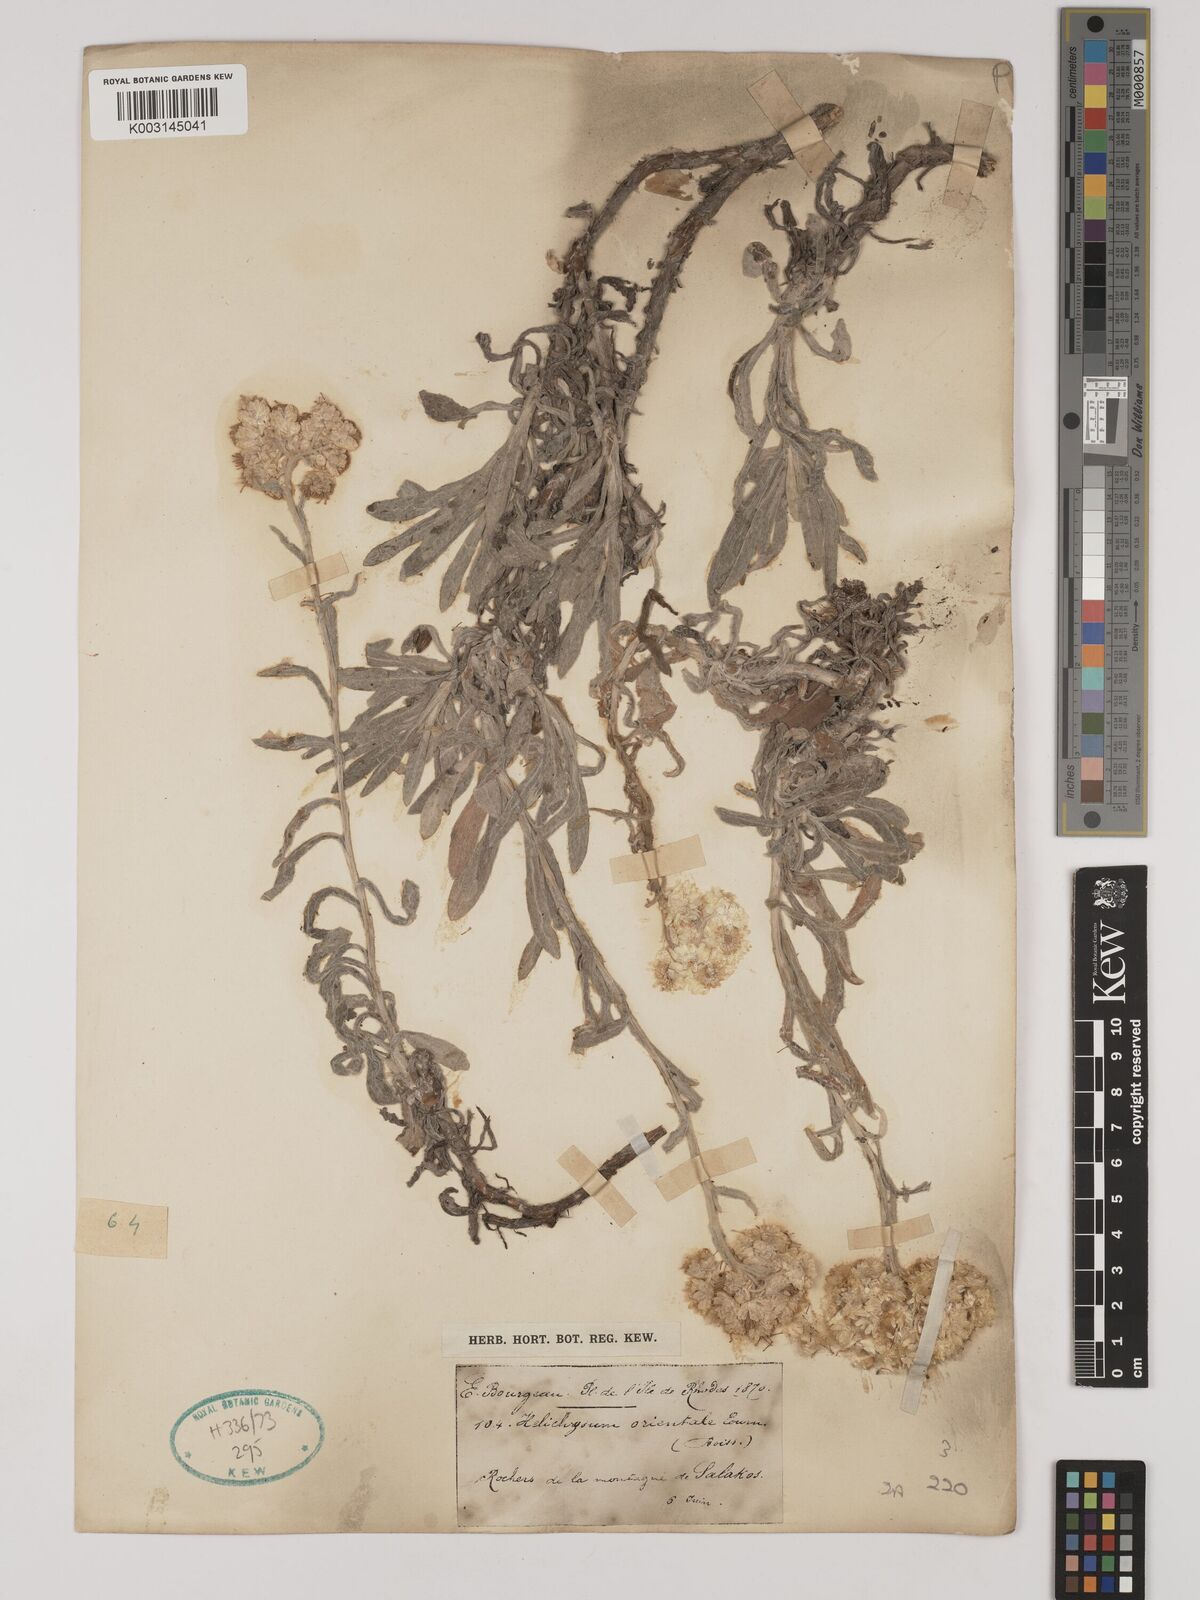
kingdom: Plantae
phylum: Tracheophyta
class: Magnoliopsida
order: Asterales
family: Asteraceae
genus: Helichrysum
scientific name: Helichrysum orientale
